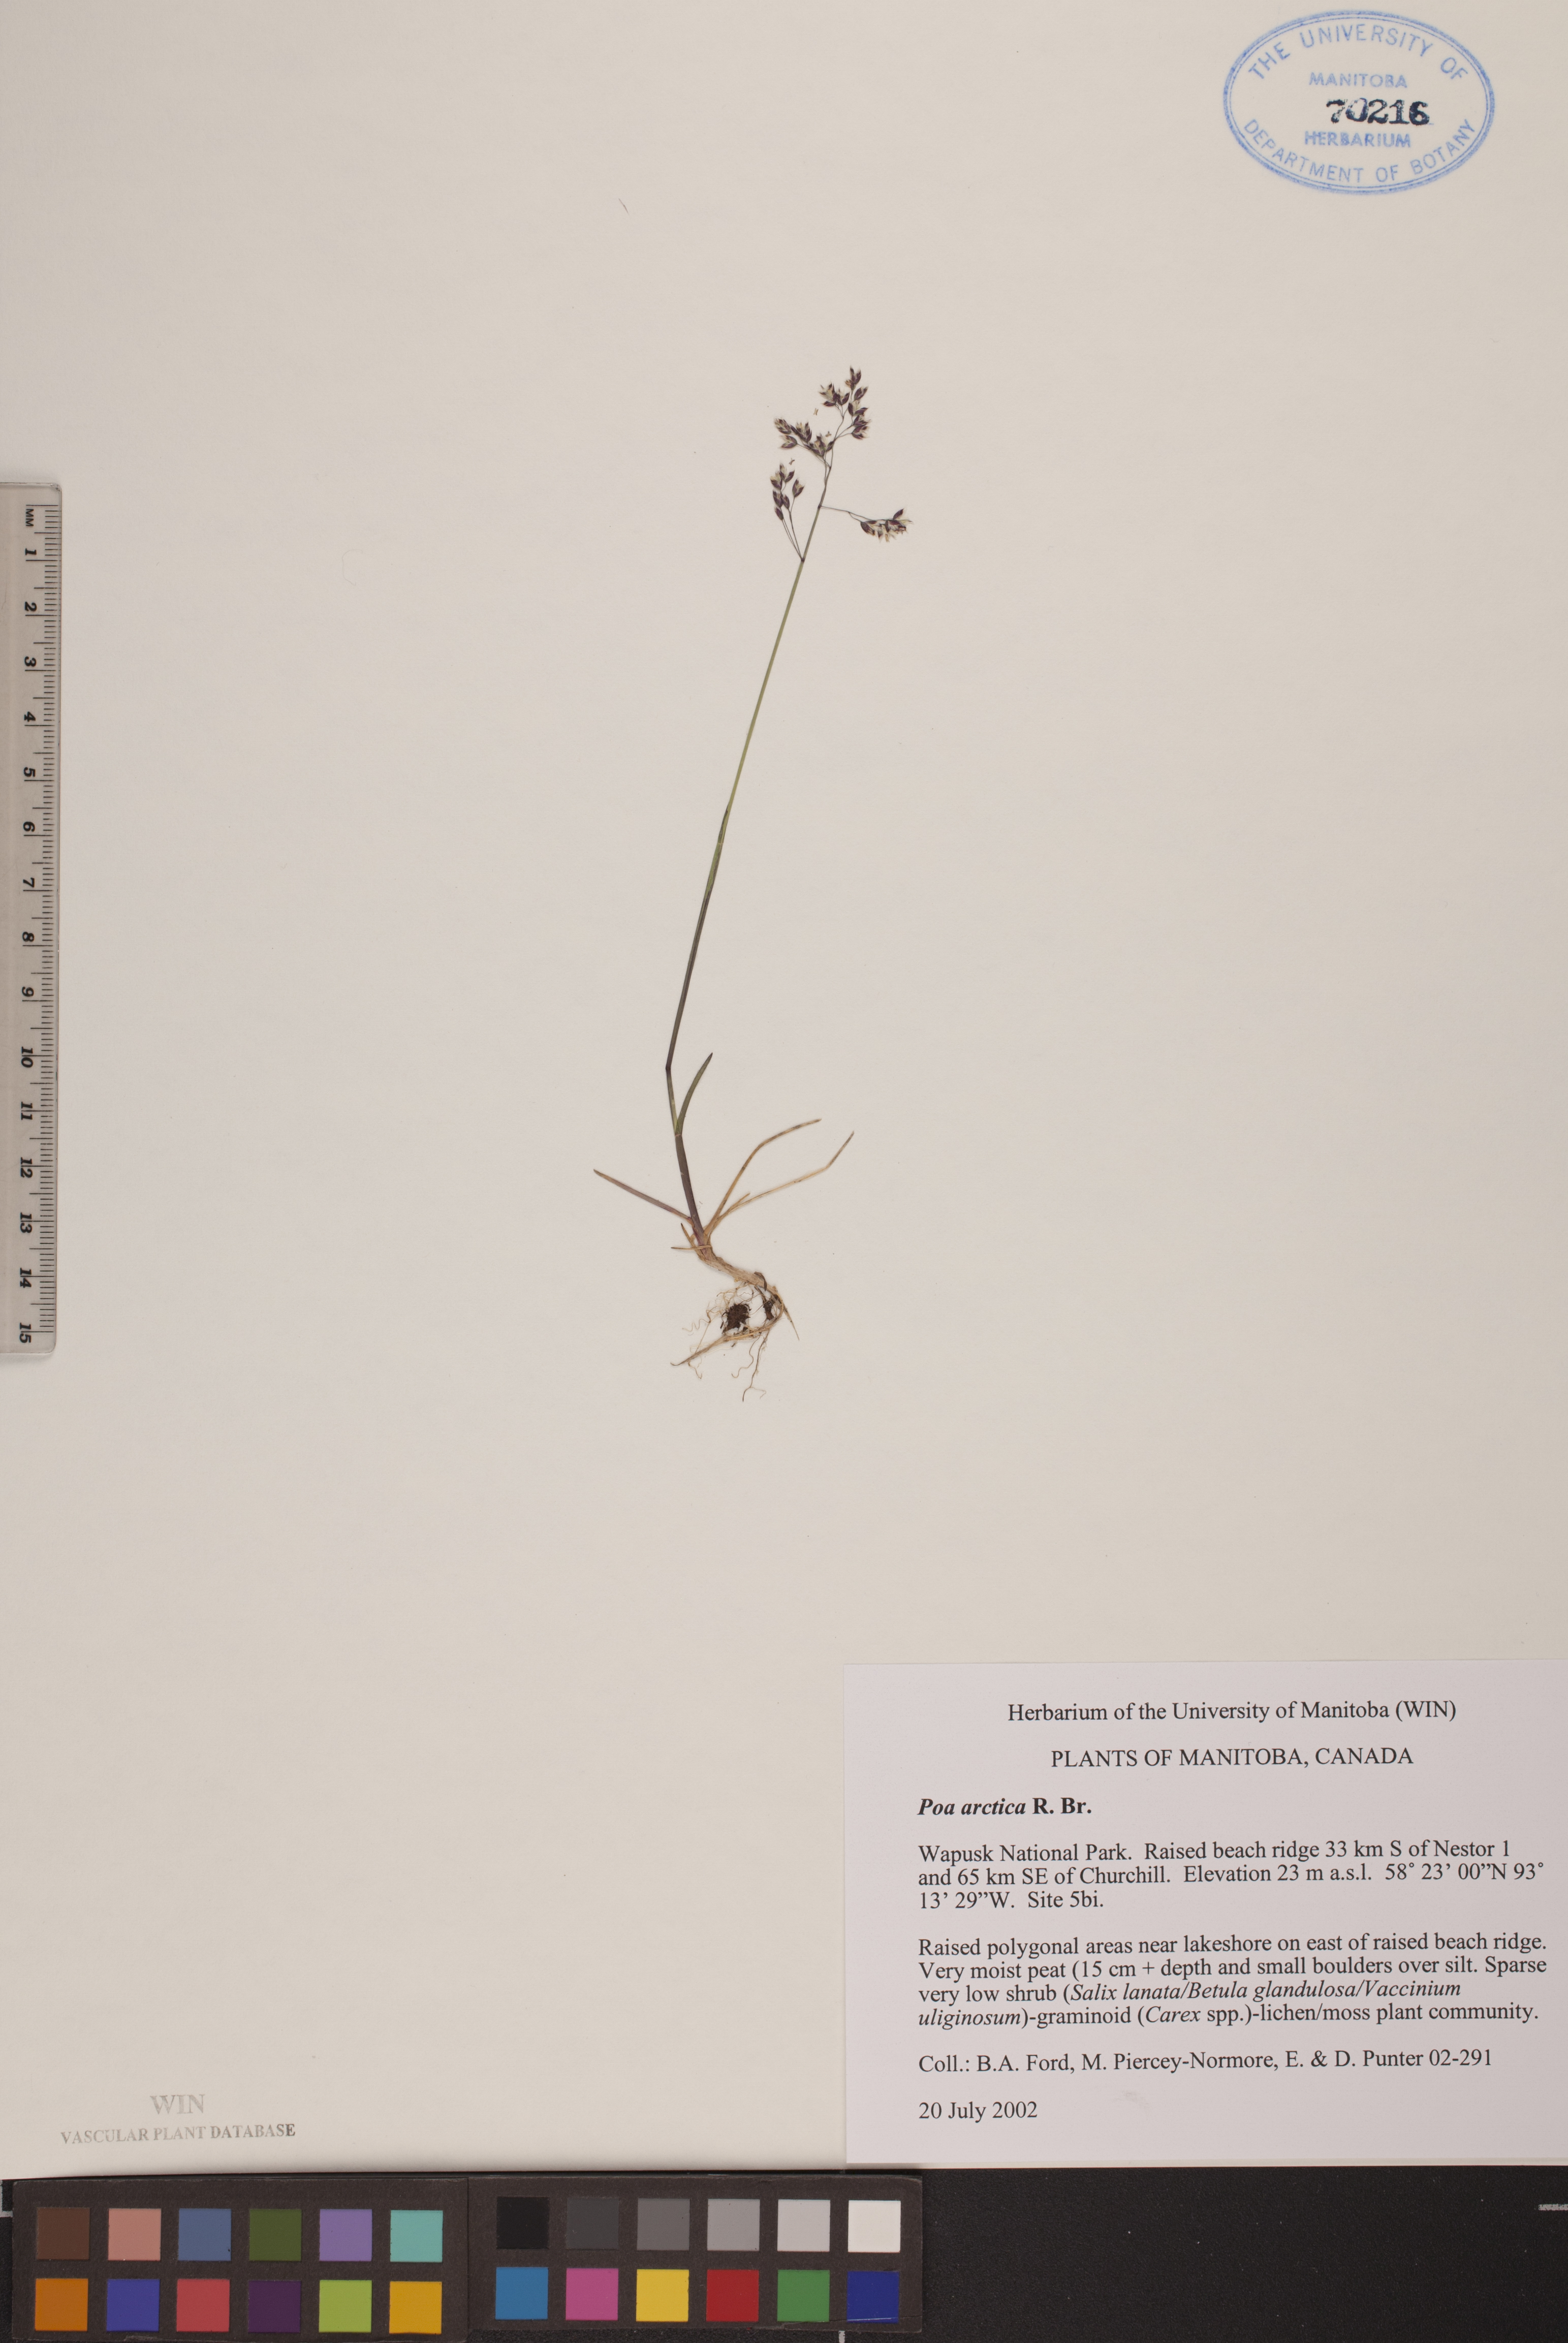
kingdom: Plantae
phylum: Tracheophyta
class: Liliopsida
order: Poales
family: Poaceae
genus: Poa
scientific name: Poa arctica
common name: Arctic bluegrass
